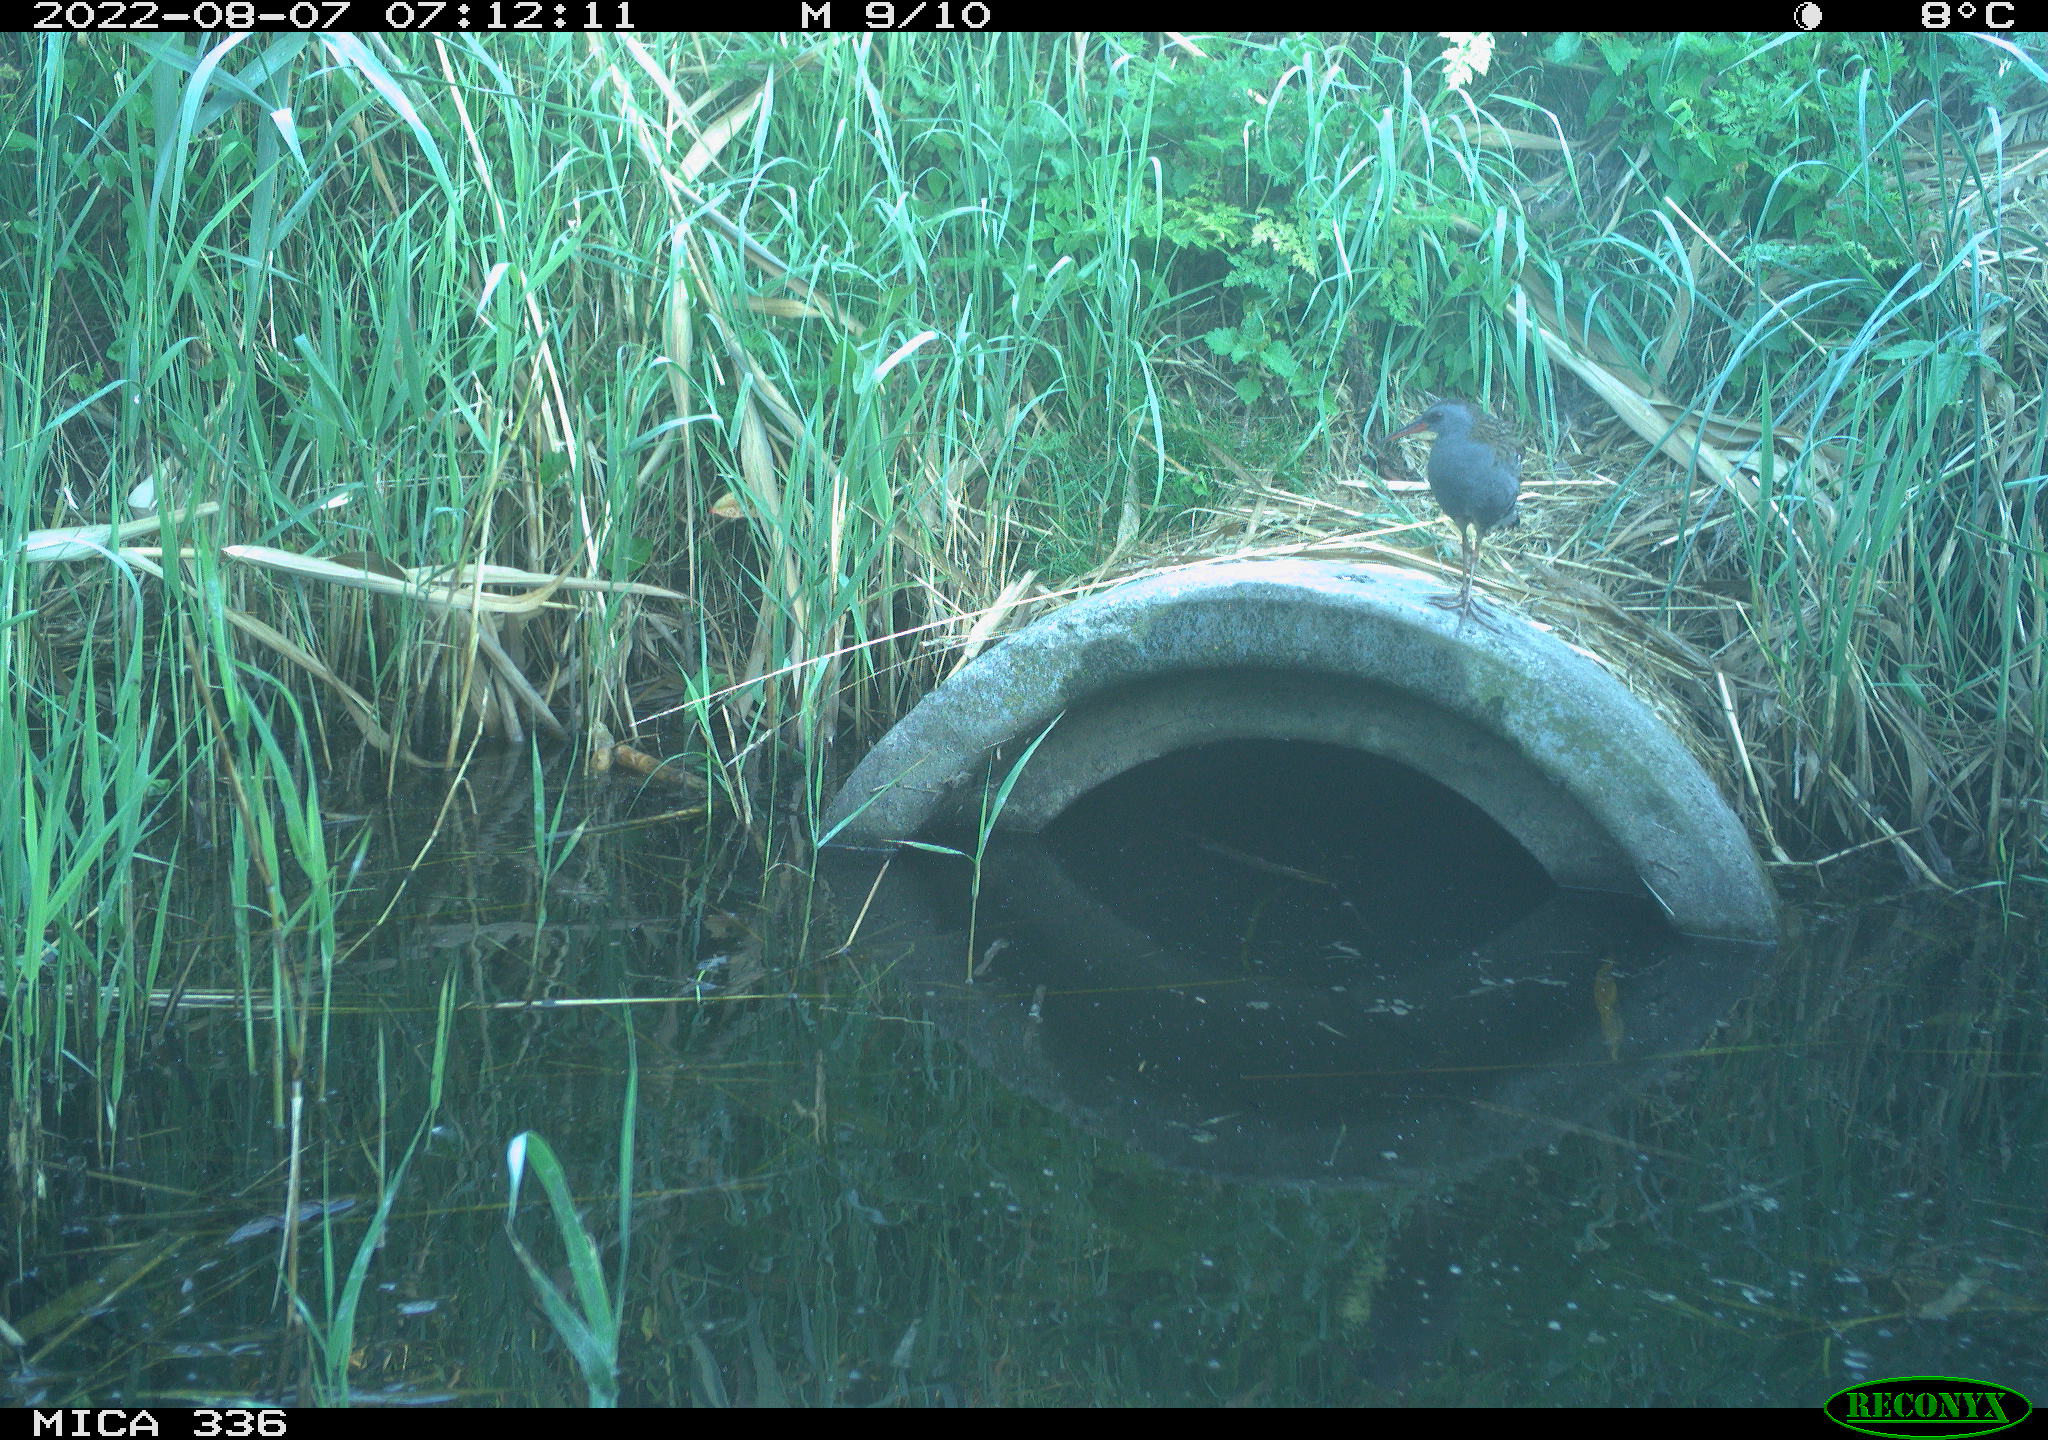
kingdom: Animalia
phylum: Chordata
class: Aves
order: Gruiformes
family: Rallidae
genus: Rallus
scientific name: Rallus aquaticus
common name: Water rail
